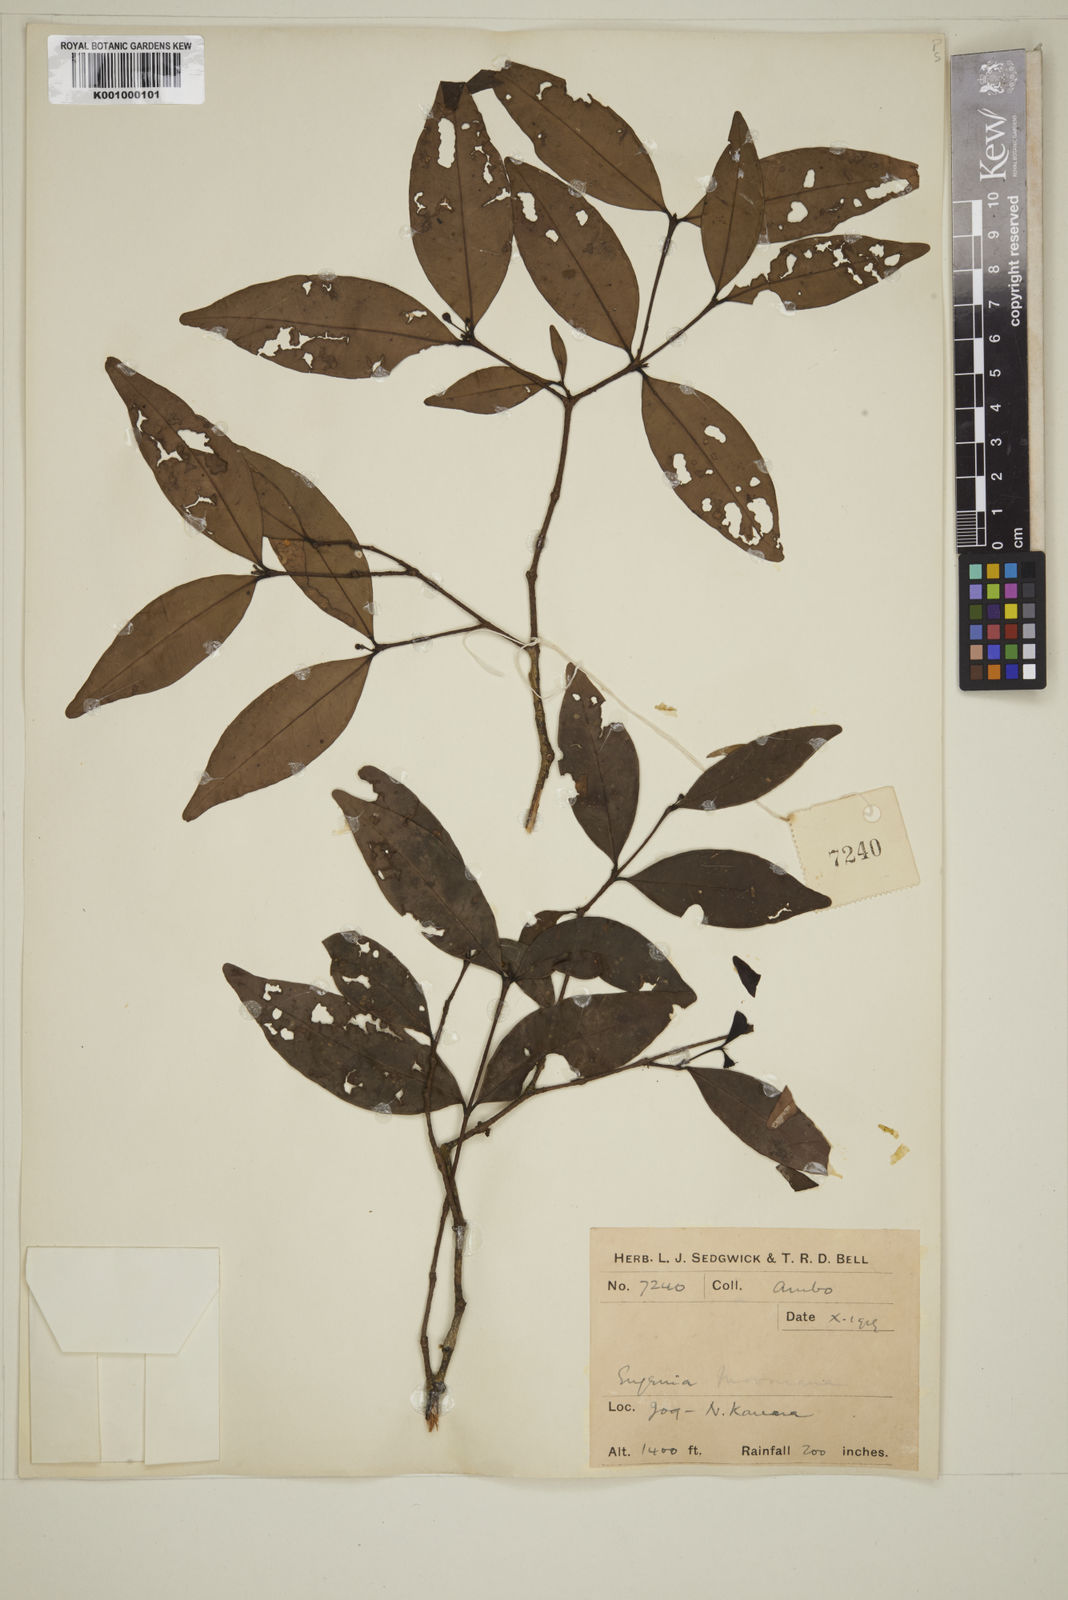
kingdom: Plantae
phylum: Tracheophyta
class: Magnoliopsida
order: Myrtales
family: Myrtaceae
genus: Eugenia
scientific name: Eugenia thwaitesii
